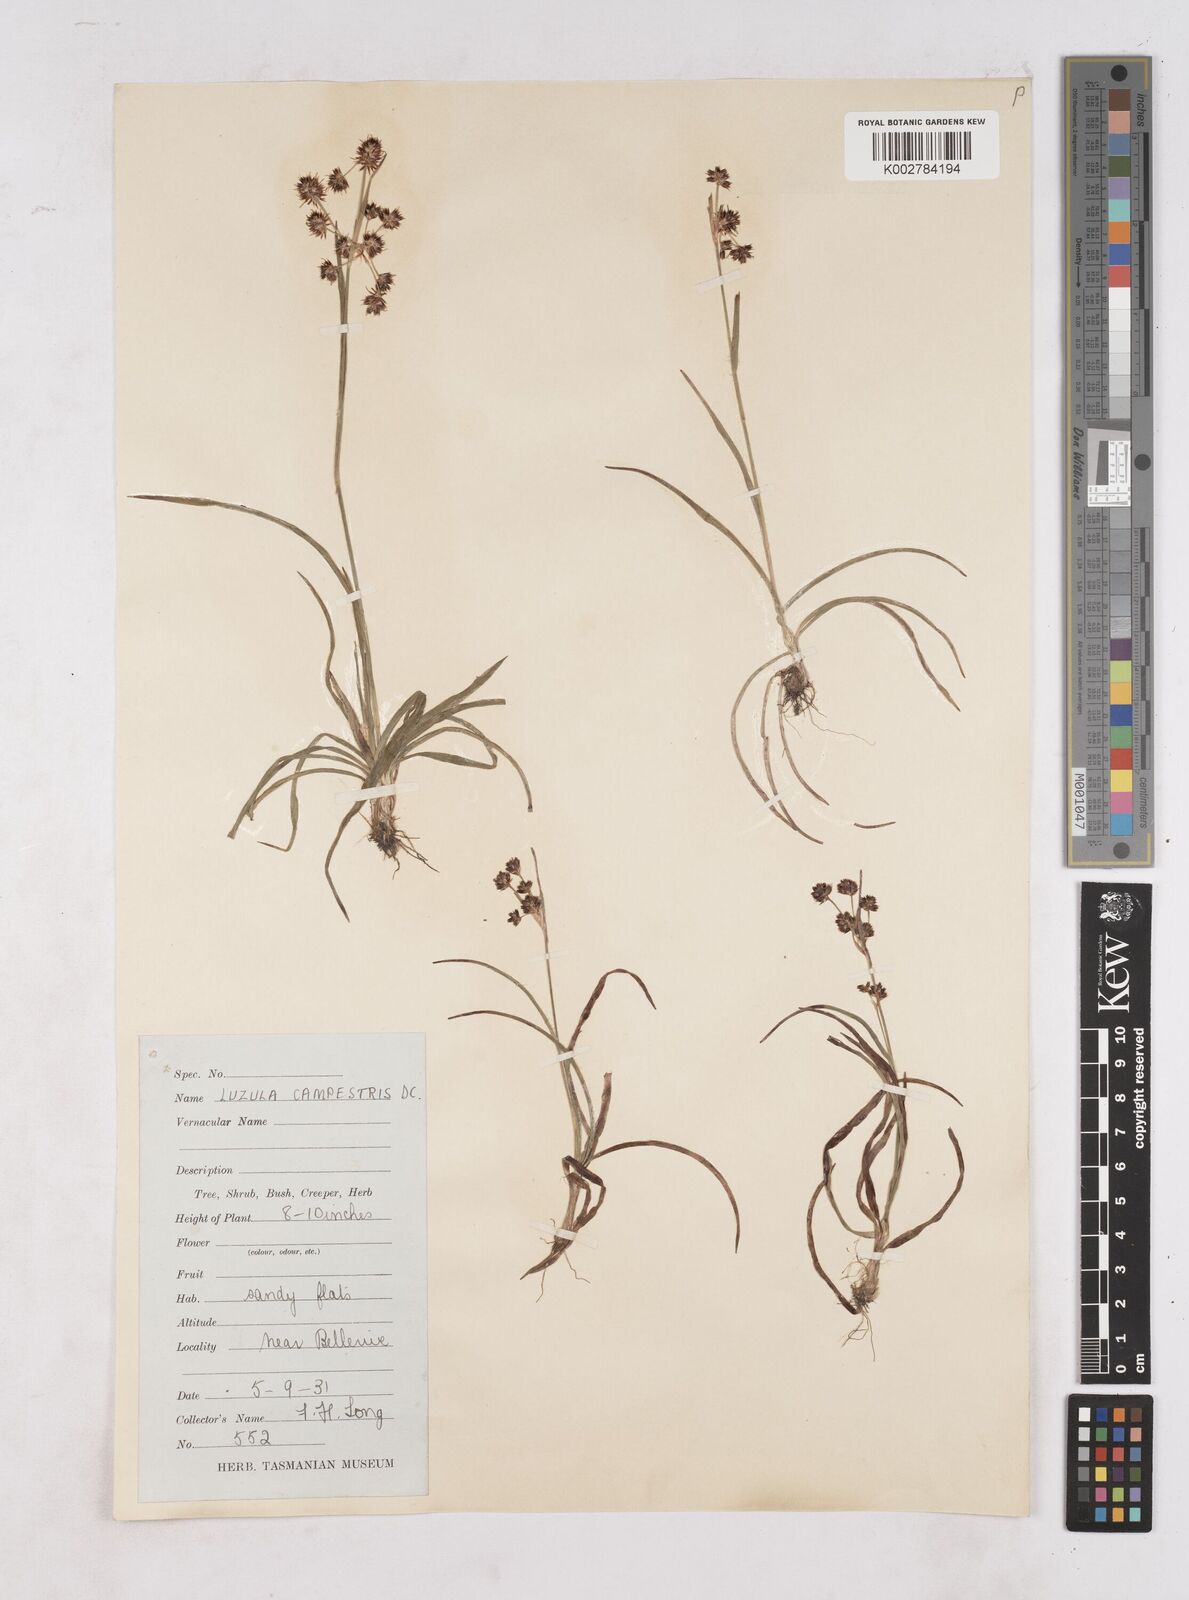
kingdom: Plantae
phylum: Tracheophyta
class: Liliopsida
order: Poales
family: Juncaceae
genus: Luzula
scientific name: Luzula campestris
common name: Field wood-rush
